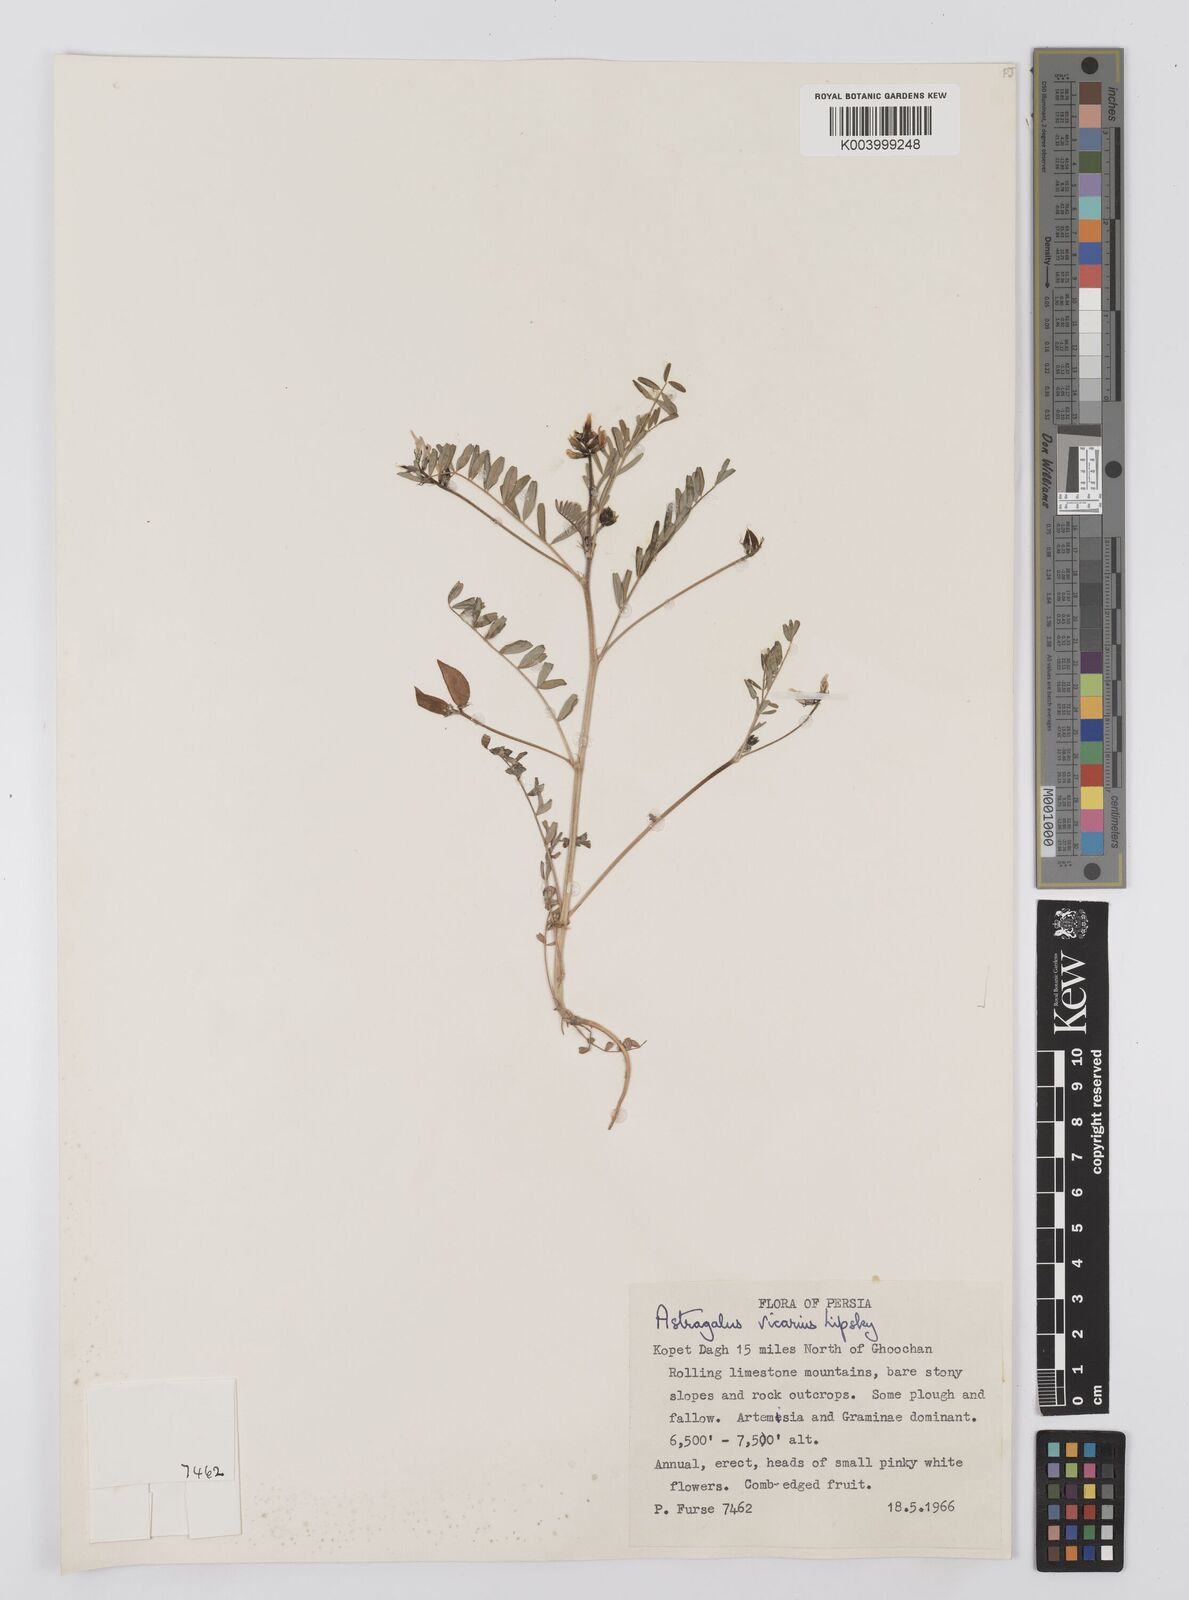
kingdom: Plantae
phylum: Tracheophyta
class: Magnoliopsida
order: Fabales
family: Fabaceae
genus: Astragalus
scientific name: Astragalus vicarius
